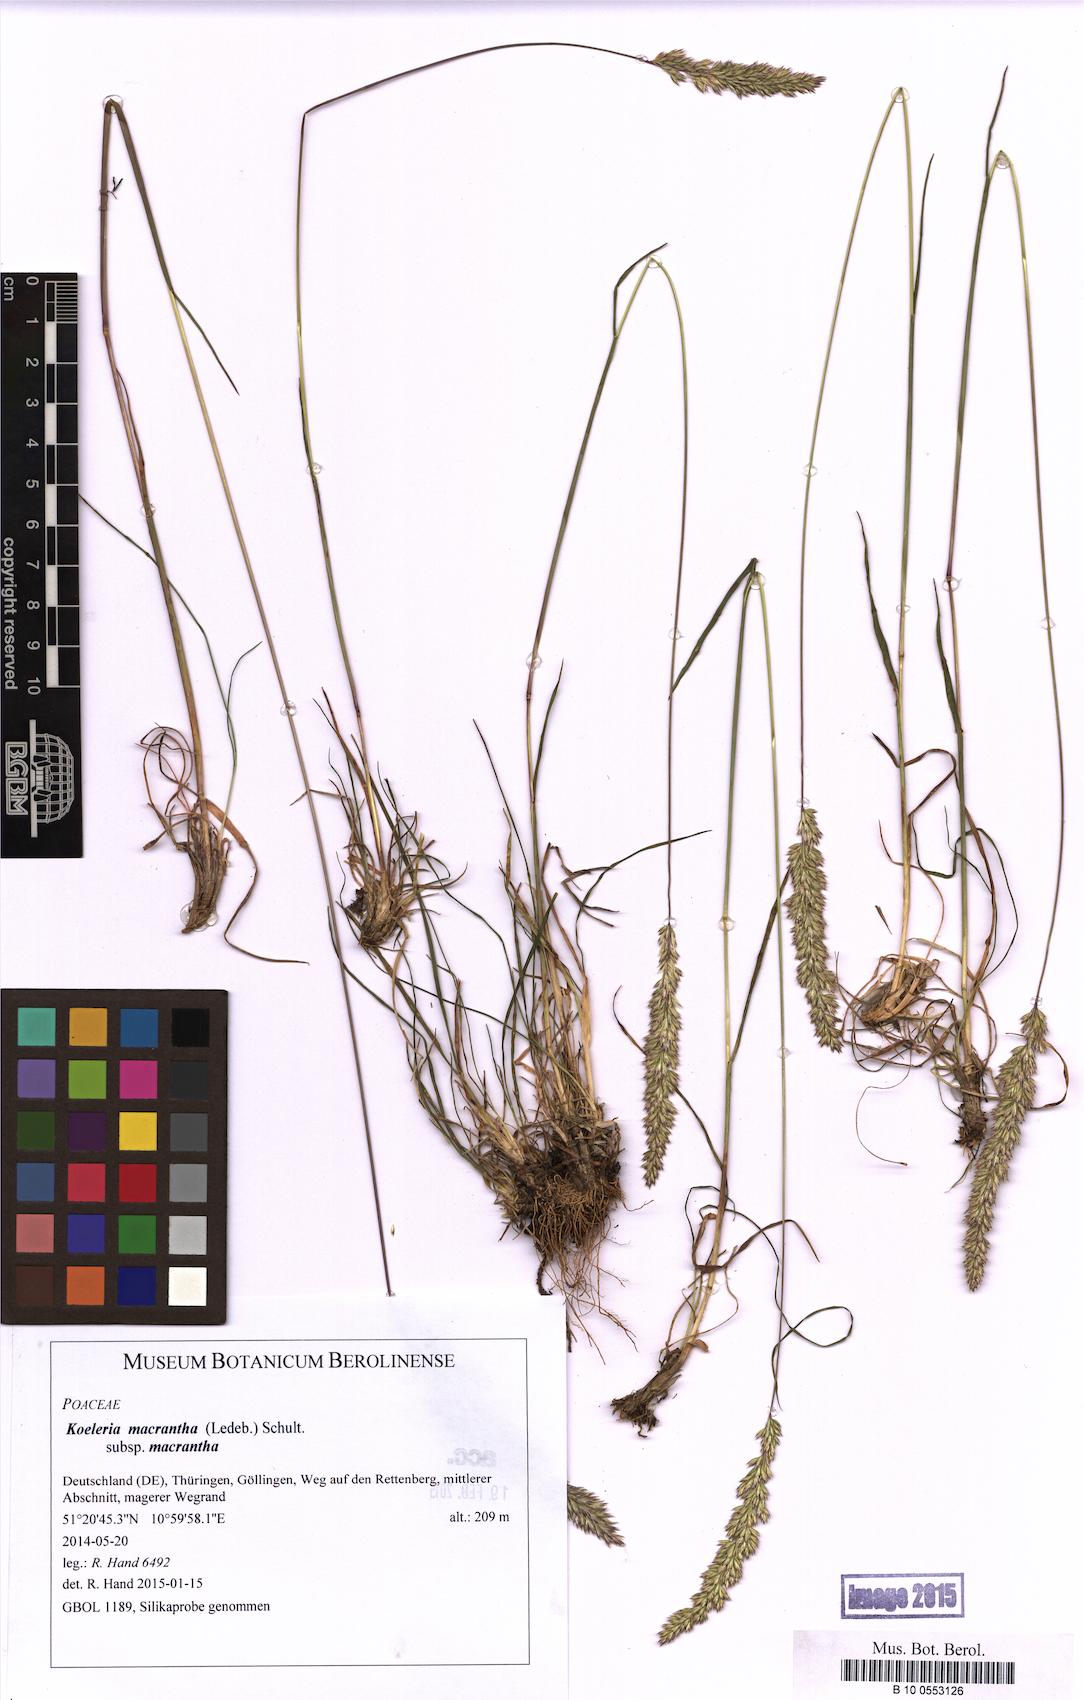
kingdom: Plantae
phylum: Tracheophyta
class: Liliopsida
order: Poales
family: Poaceae
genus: Koeleria
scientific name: Koeleria macrantha
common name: Crested hair-grass
